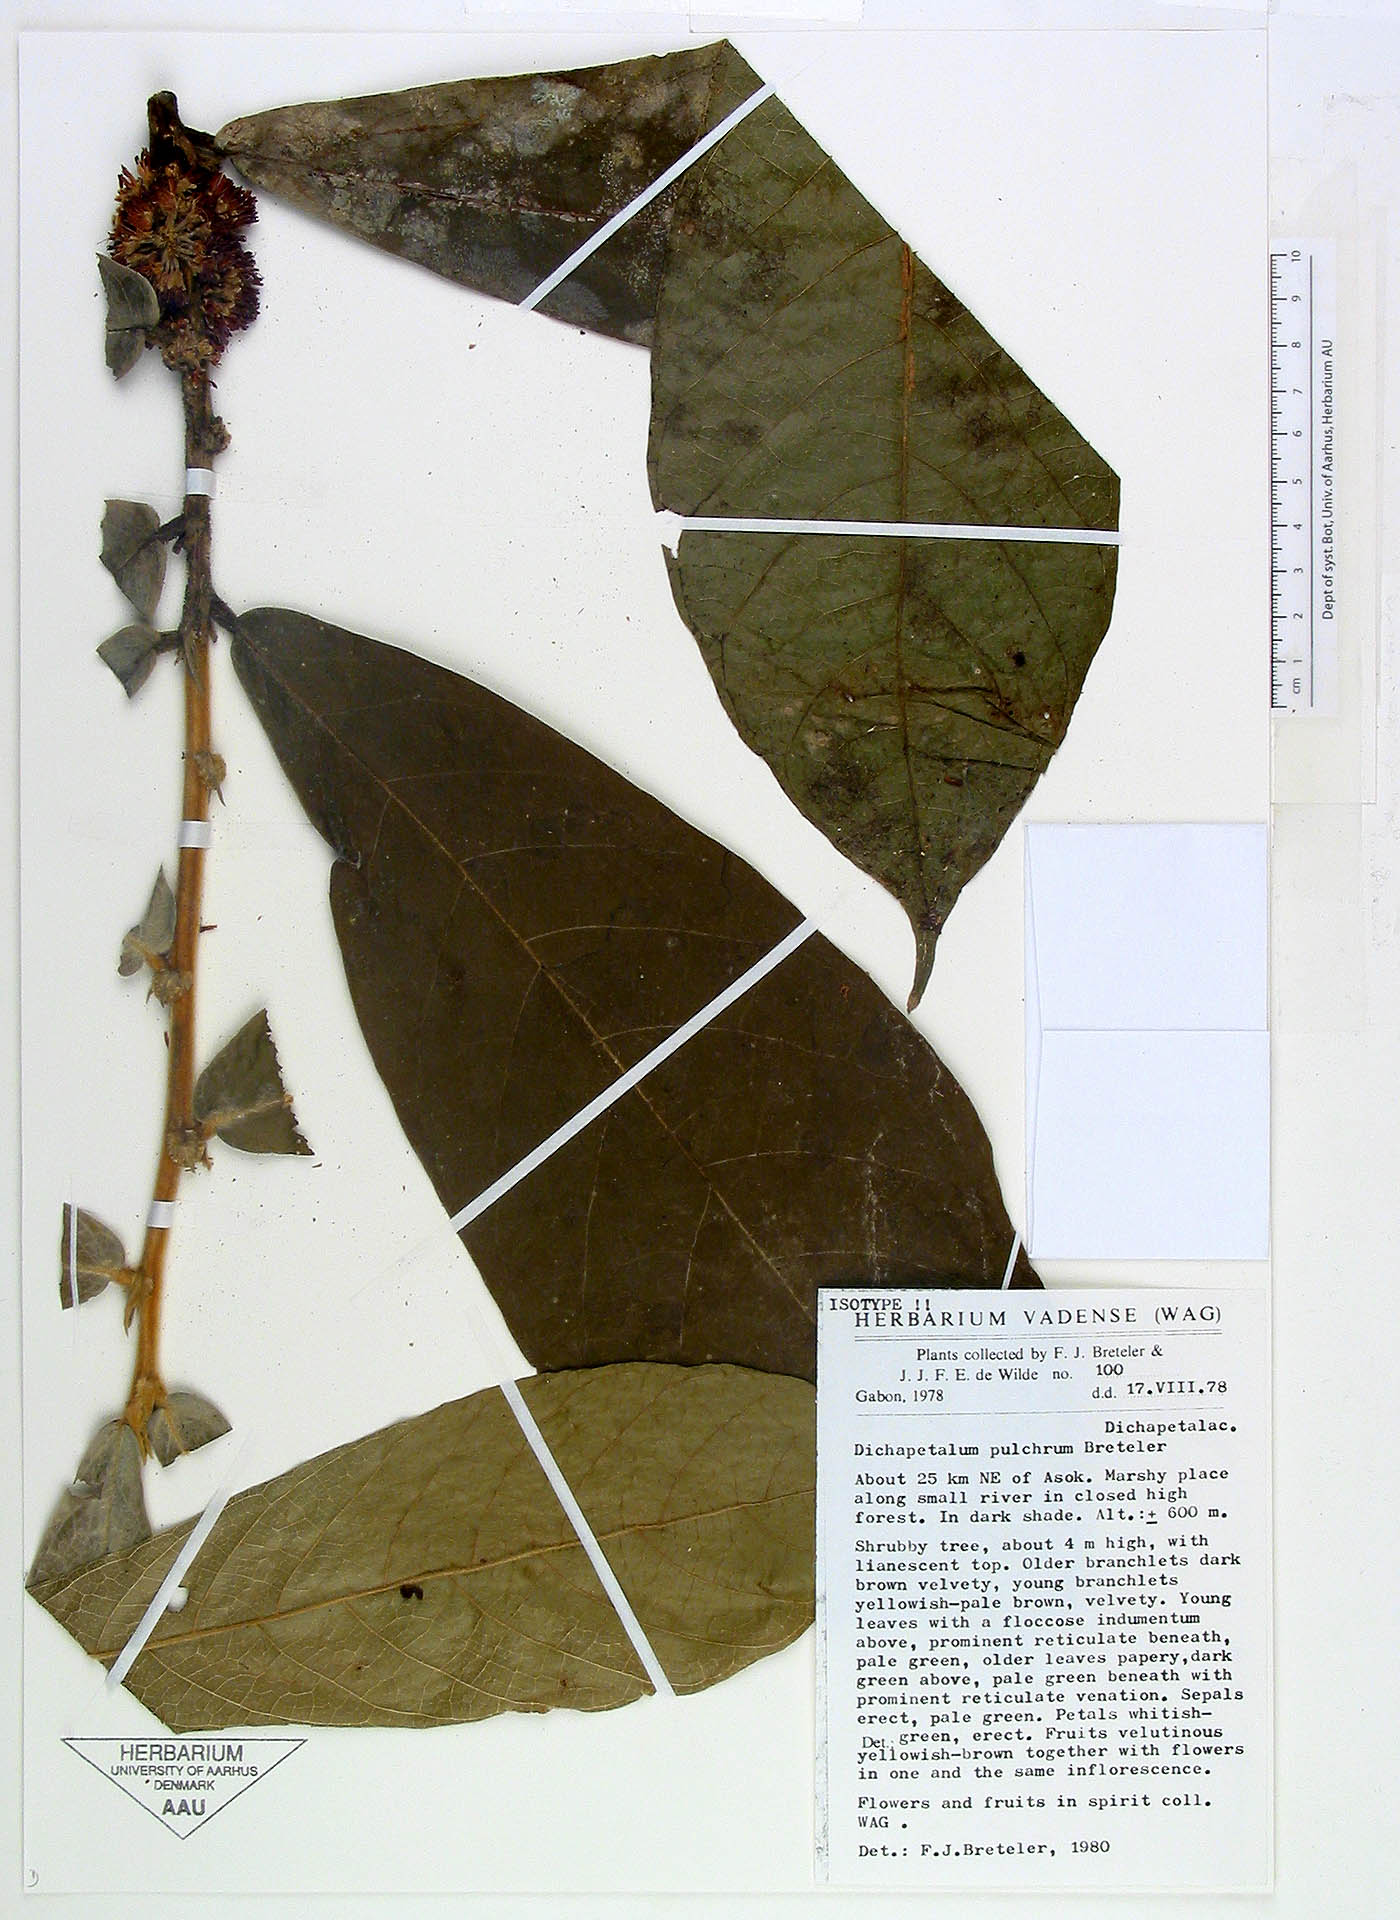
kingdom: Plantae
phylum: Tracheophyta
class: Magnoliopsida
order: Malpighiales
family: Dichapetalaceae
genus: Dichapetalum
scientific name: Dichapetalum pulchrum
